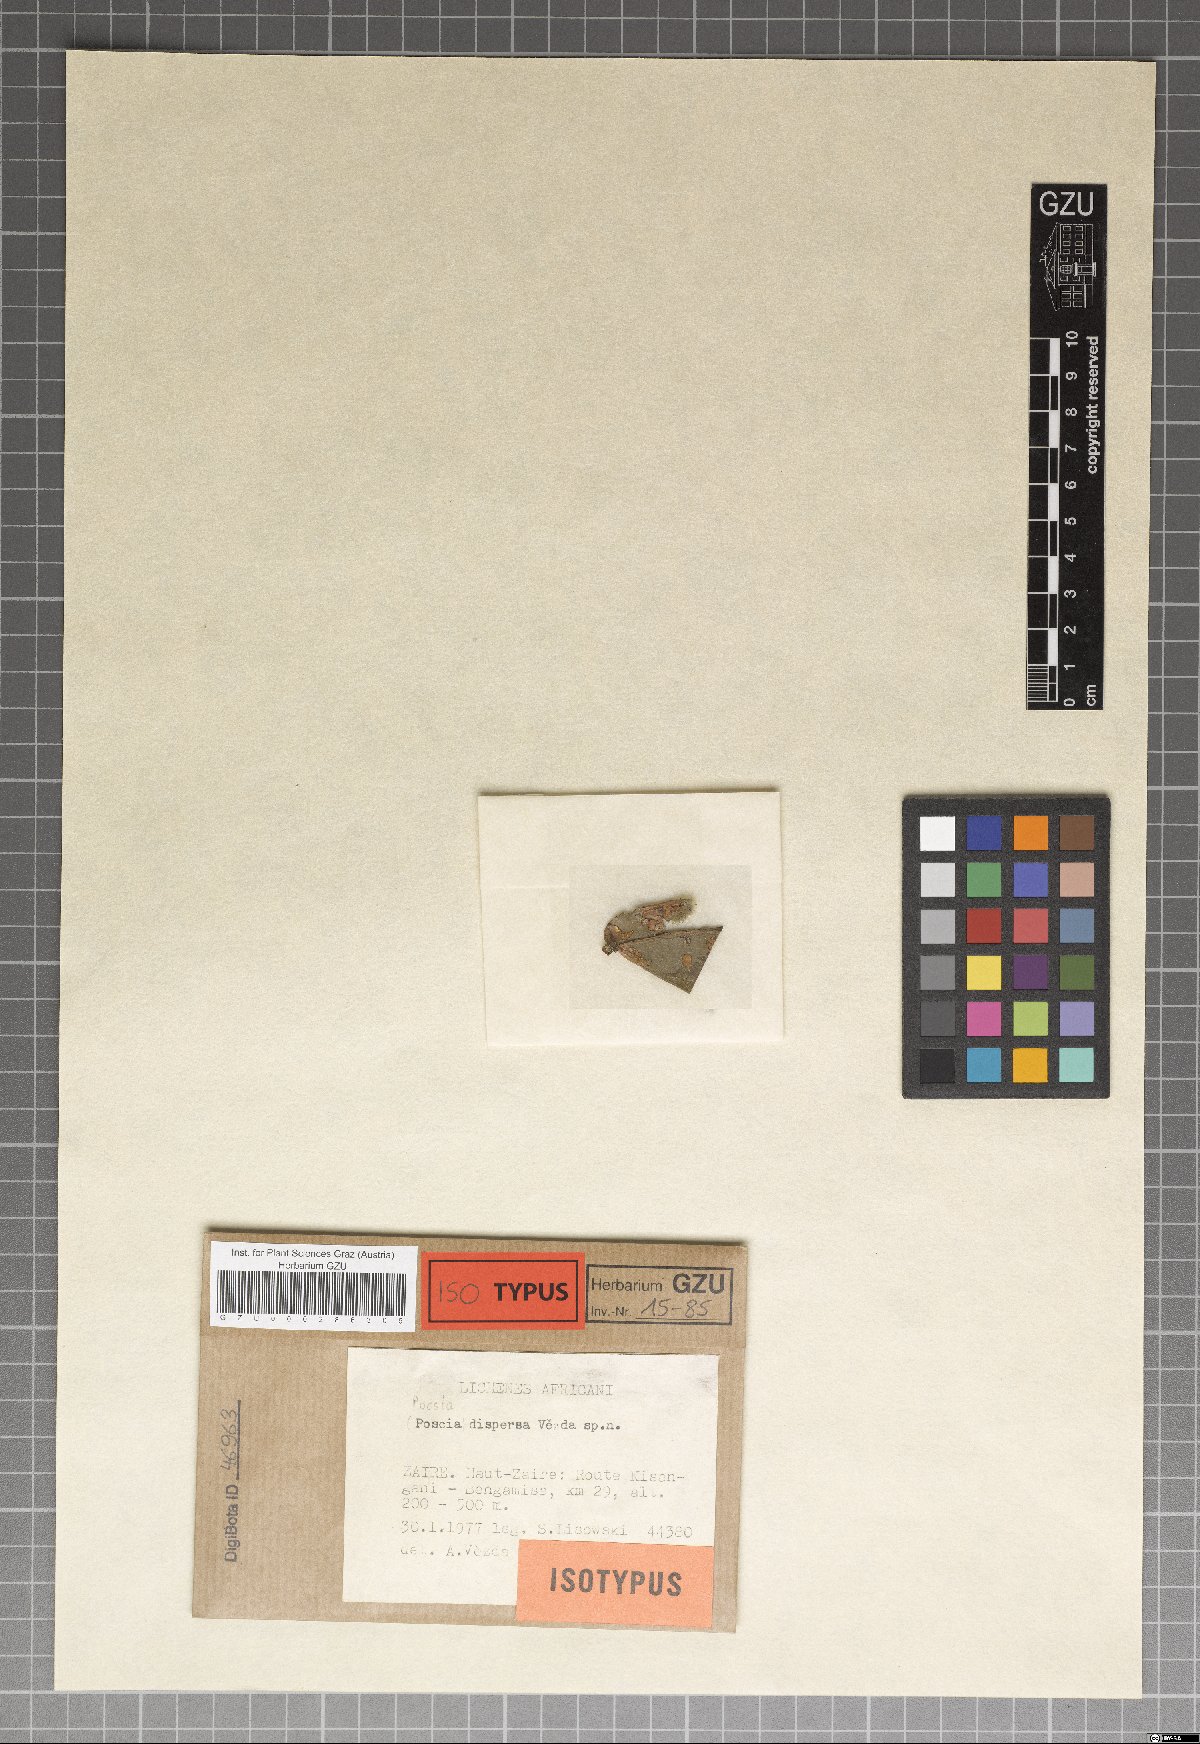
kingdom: Fungi
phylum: Ascomycota
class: Eurotiomycetes
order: Verrucariales
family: Verrucariaceae
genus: Phylloblastia
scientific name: Phylloblastia dispersa
